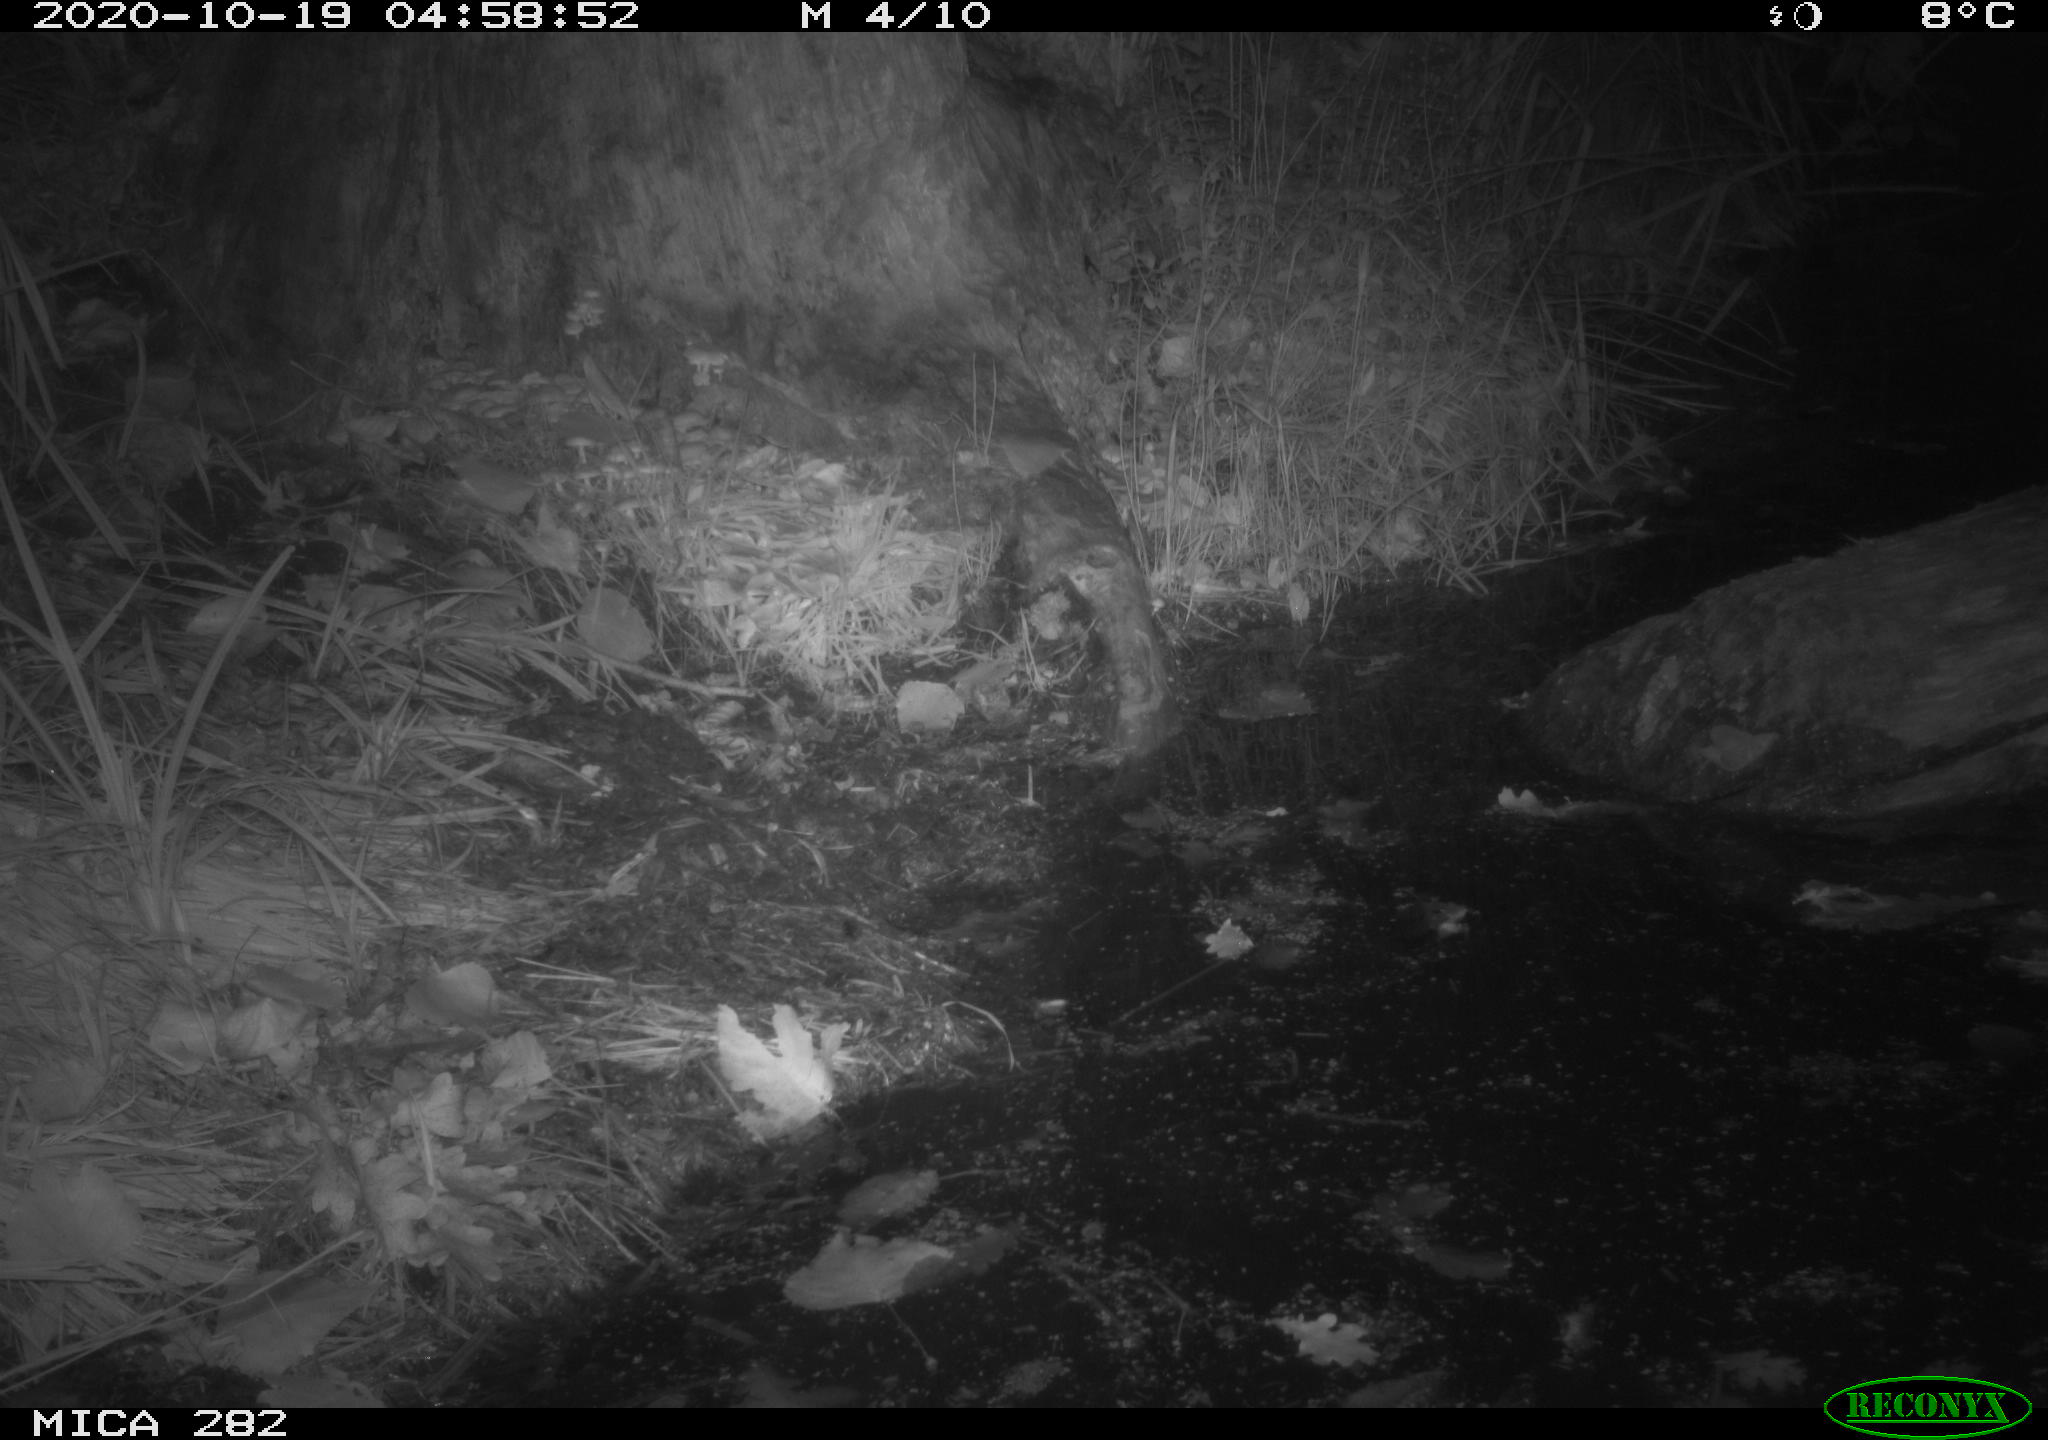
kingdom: Animalia
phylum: Chordata
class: Mammalia
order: Carnivora
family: Canidae
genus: Vulpes
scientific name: Vulpes vulpes
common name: Red fox
